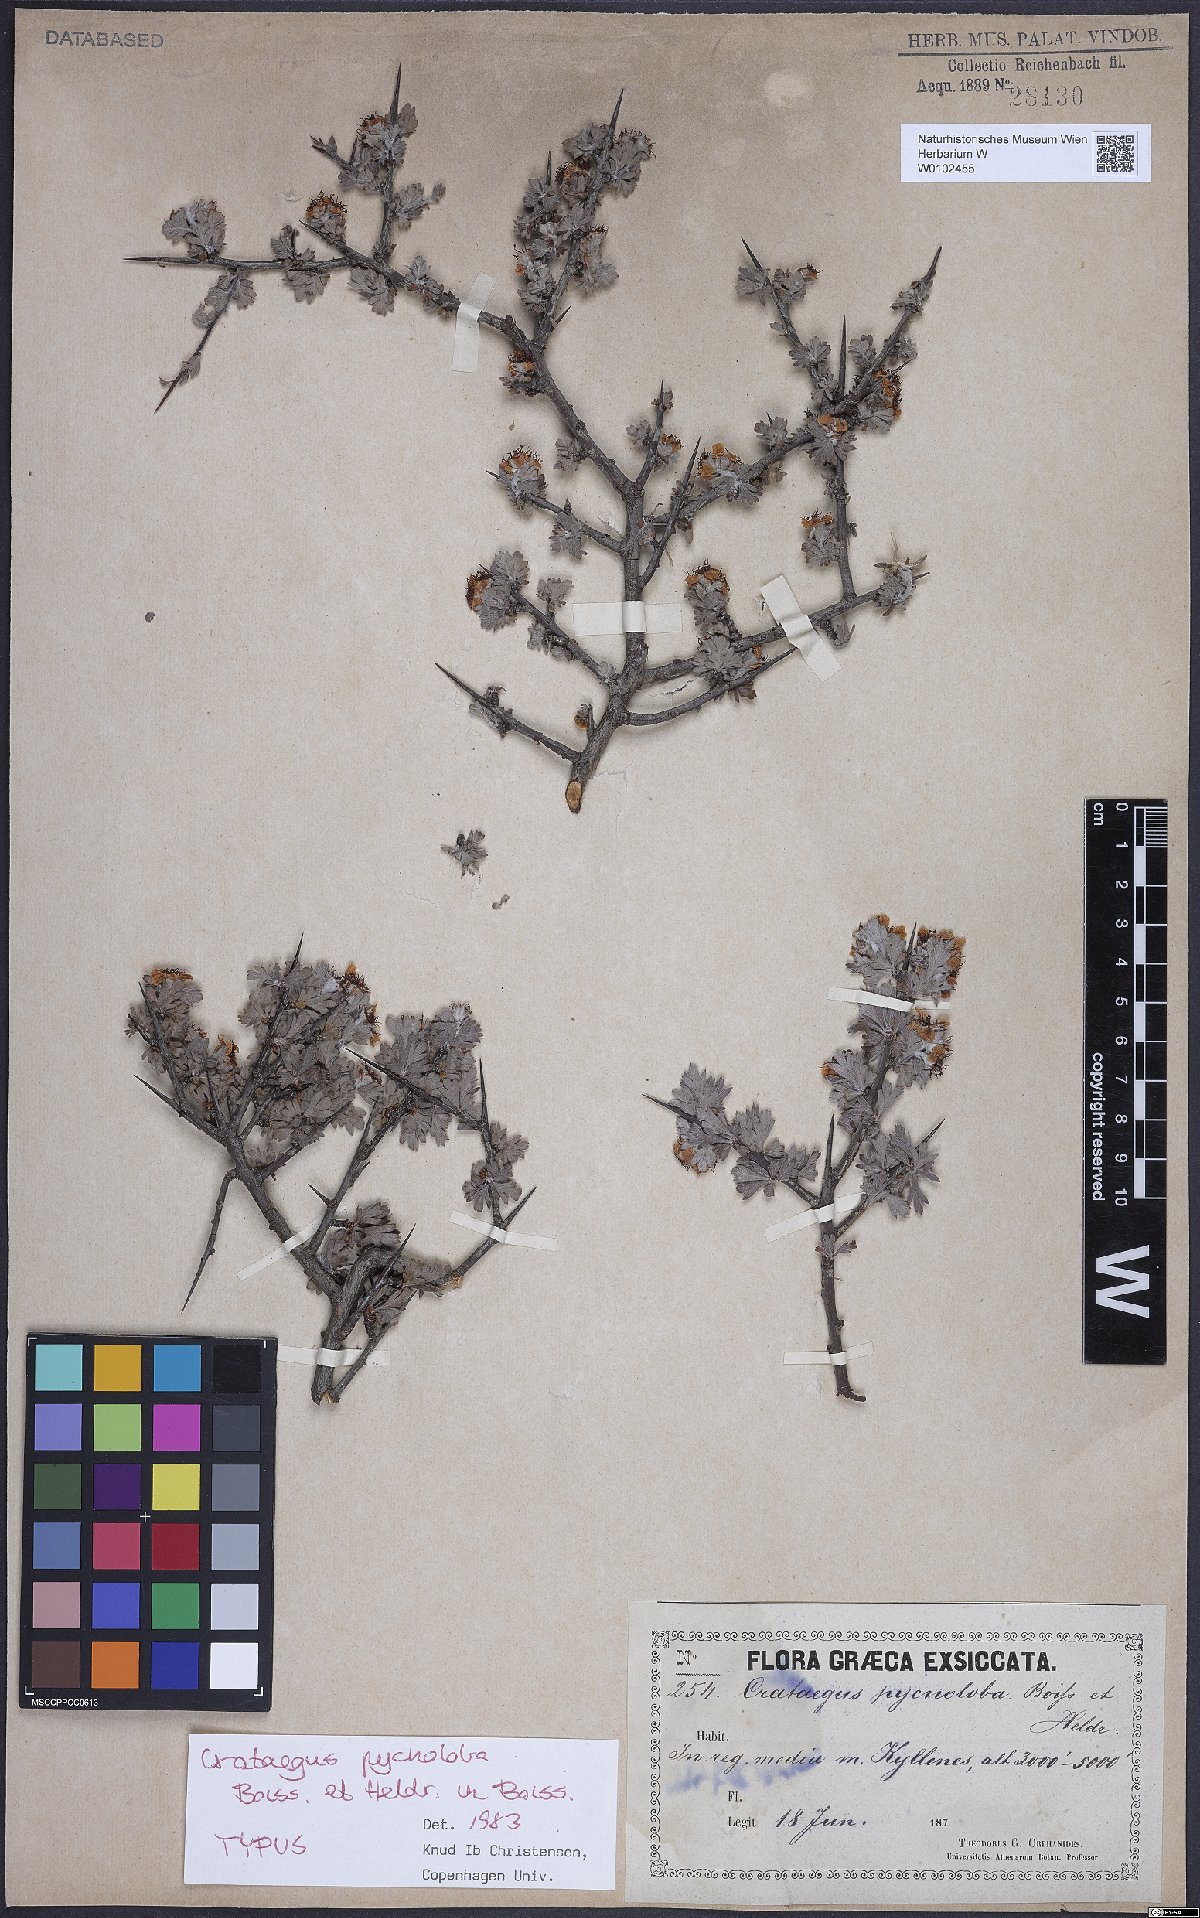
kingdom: Plantae
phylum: Tracheophyta
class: Magnoliopsida
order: Rosales
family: Rosaceae
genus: Crataegus
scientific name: Crataegus pycnoloba
